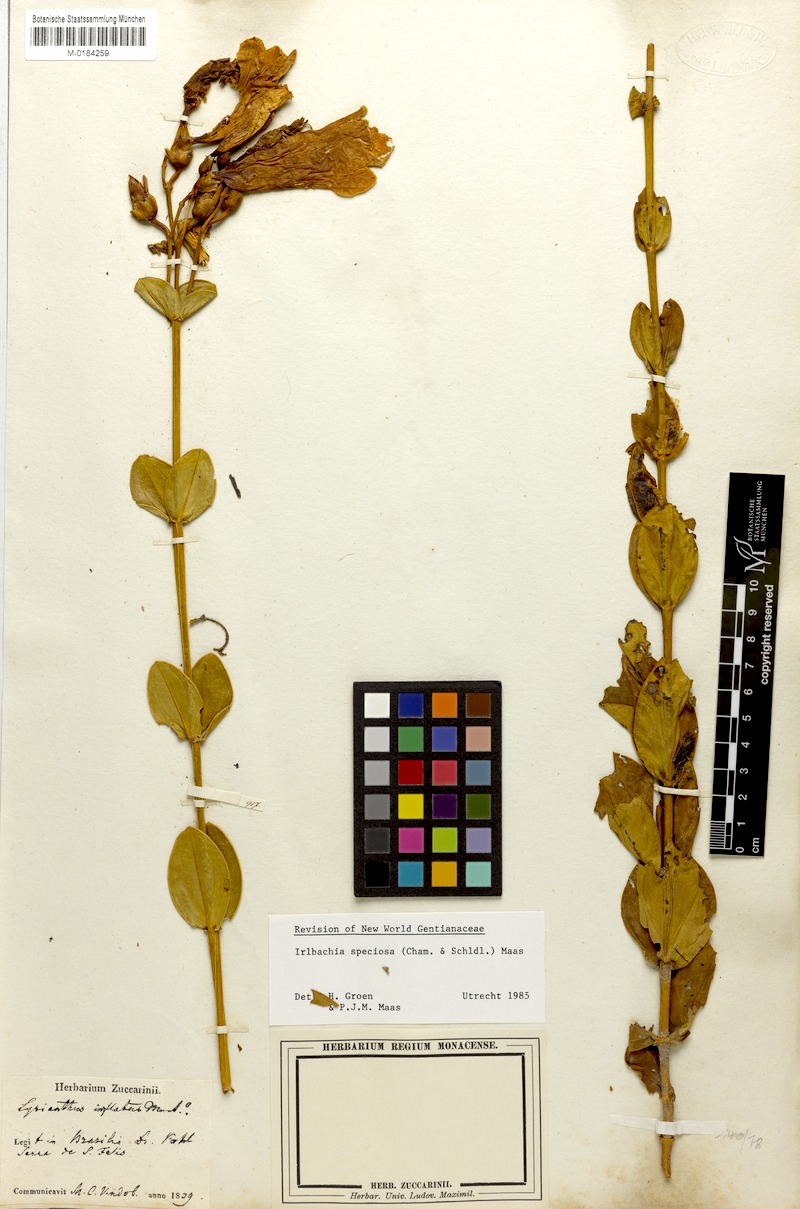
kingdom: Plantae
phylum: Tracheophyta
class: Magnoliopsida
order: Gentianales
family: Gentianaceae
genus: Calolisianthus
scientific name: Calolisianthus speciosus
